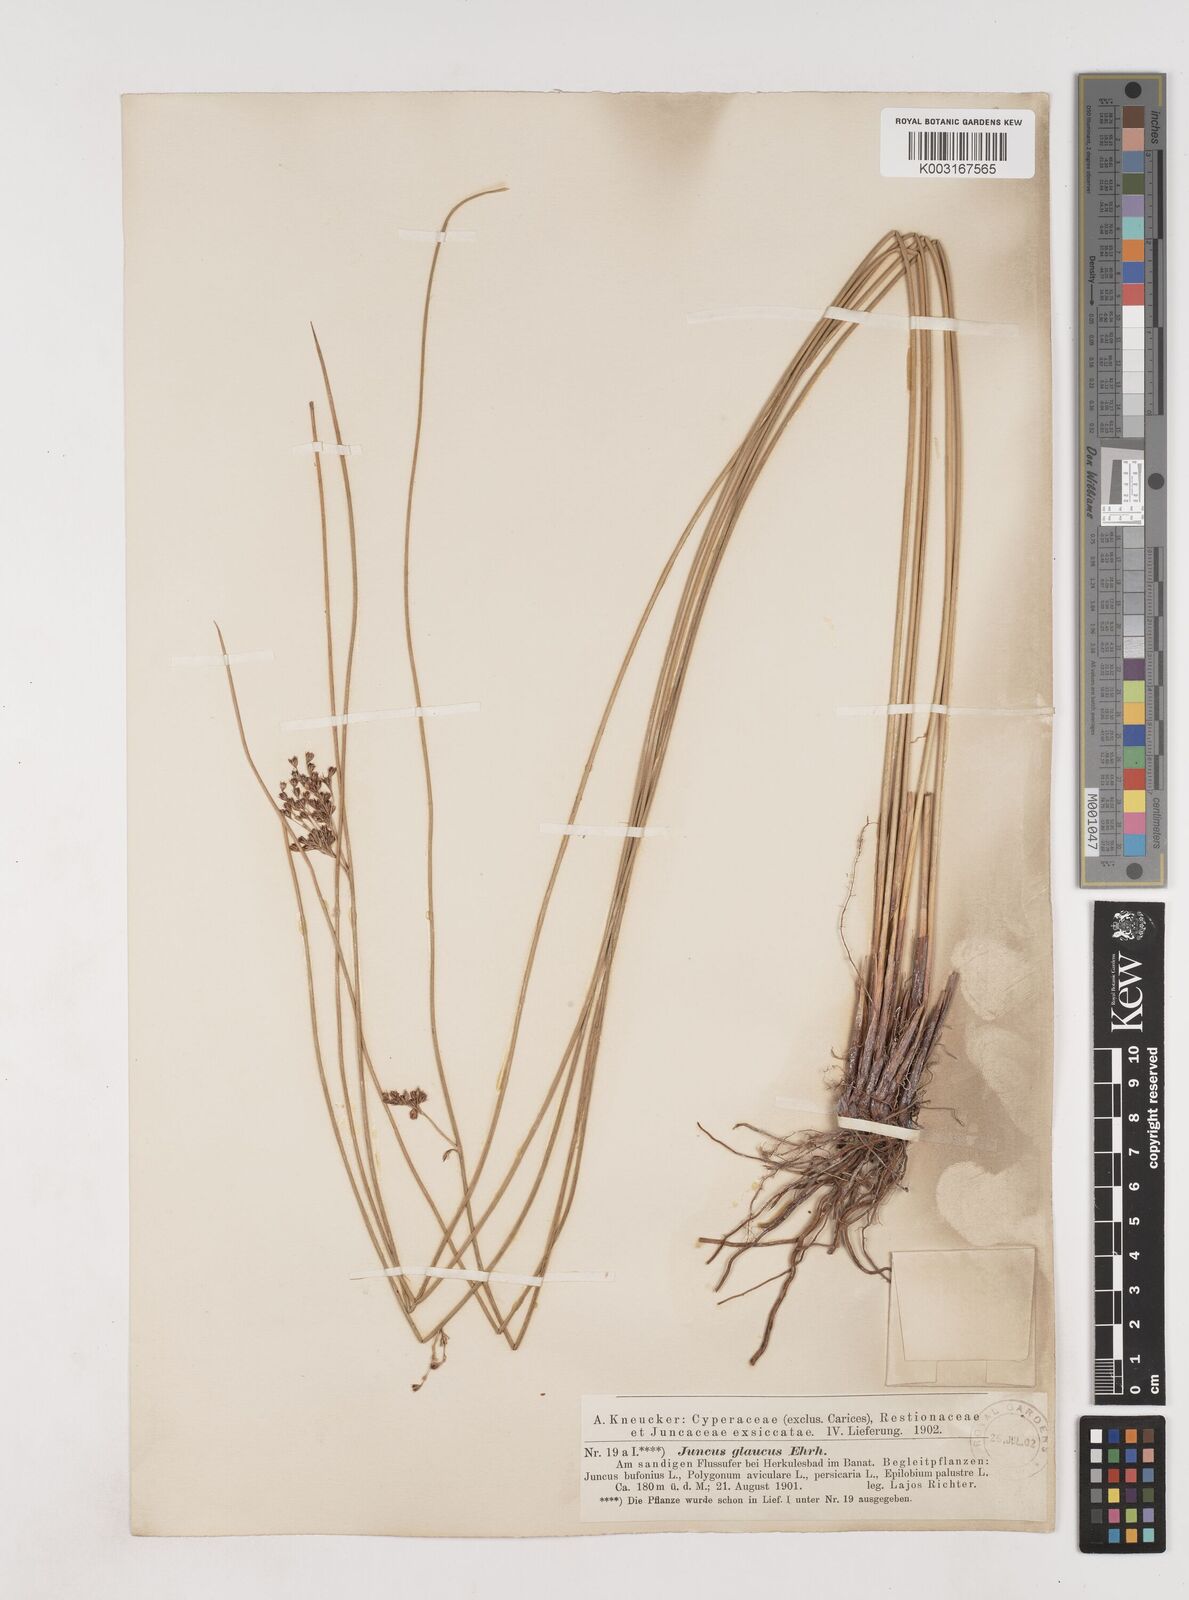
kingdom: Plantae
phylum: Tracheophyta
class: Liliopsida
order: Poales
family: Juncaceae
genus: Juncus
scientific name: Juncus inflexus
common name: Hard rush
